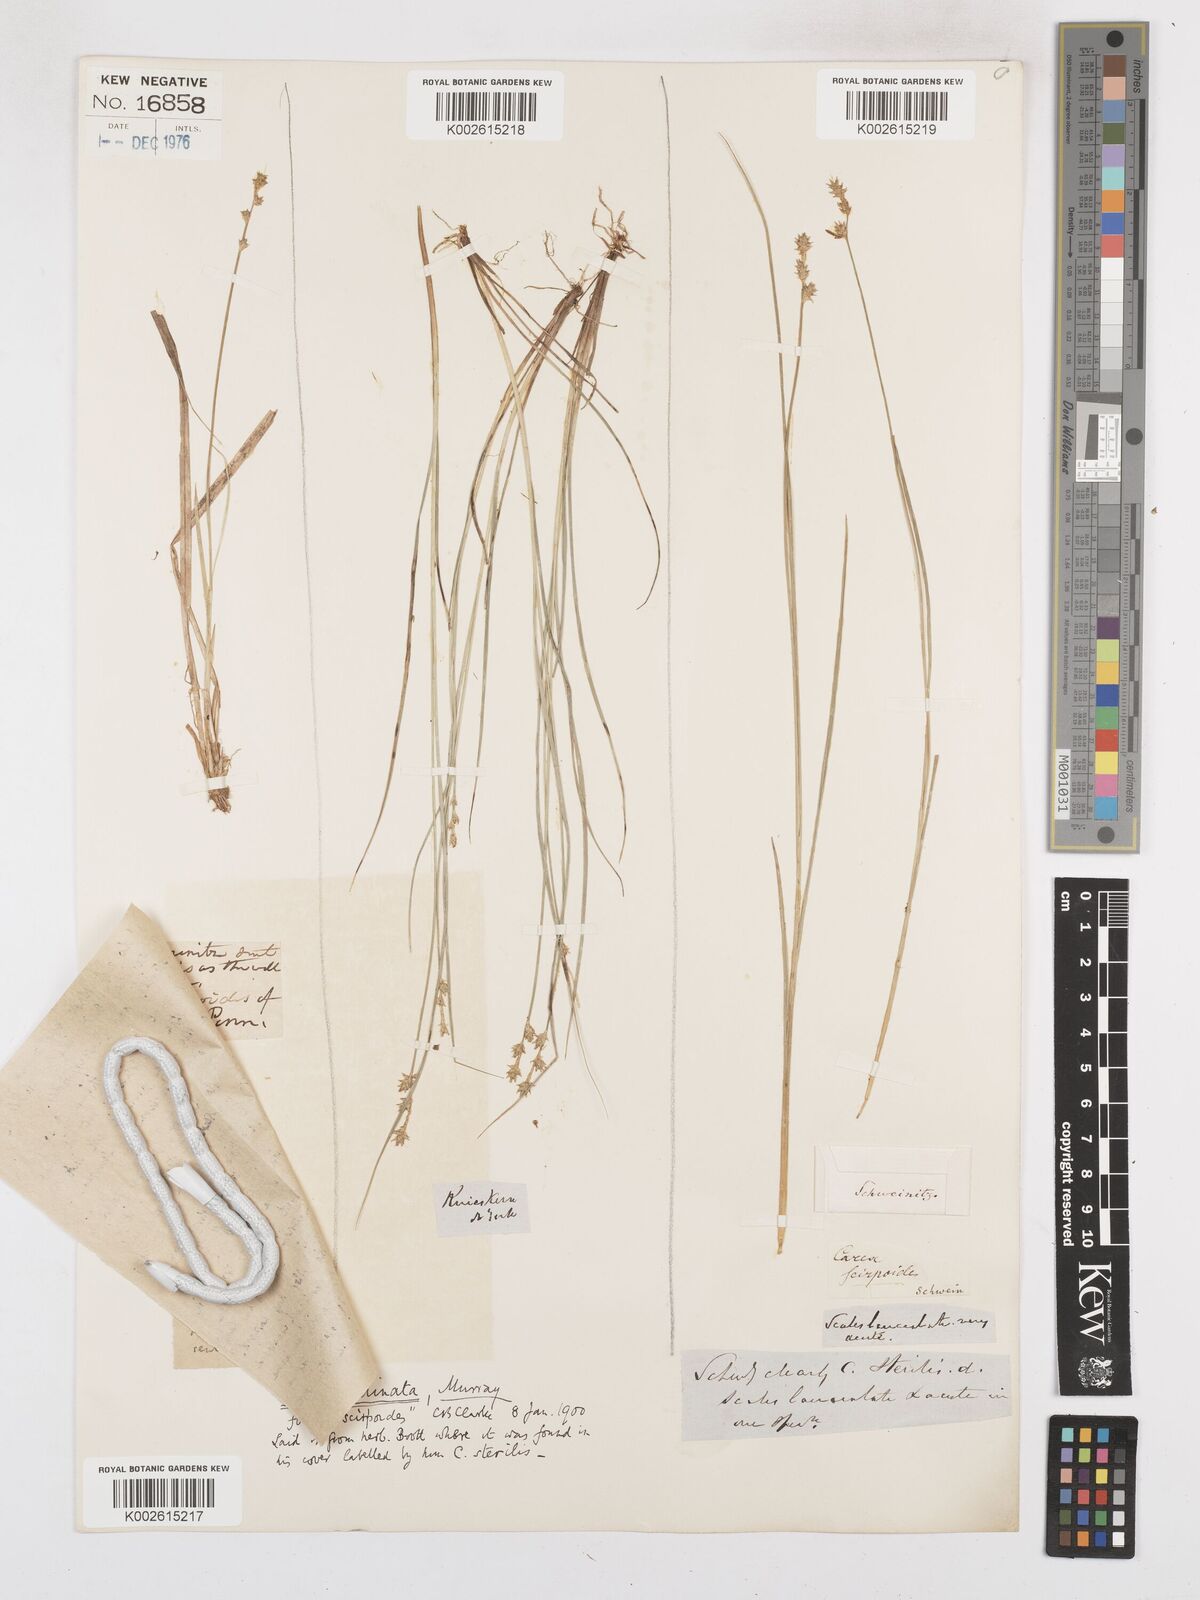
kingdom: Plantae
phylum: Tracheophyta
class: Liliopsida
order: Poales
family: Cyperaceae
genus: Carex
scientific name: Carex echinata
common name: Star sedge
